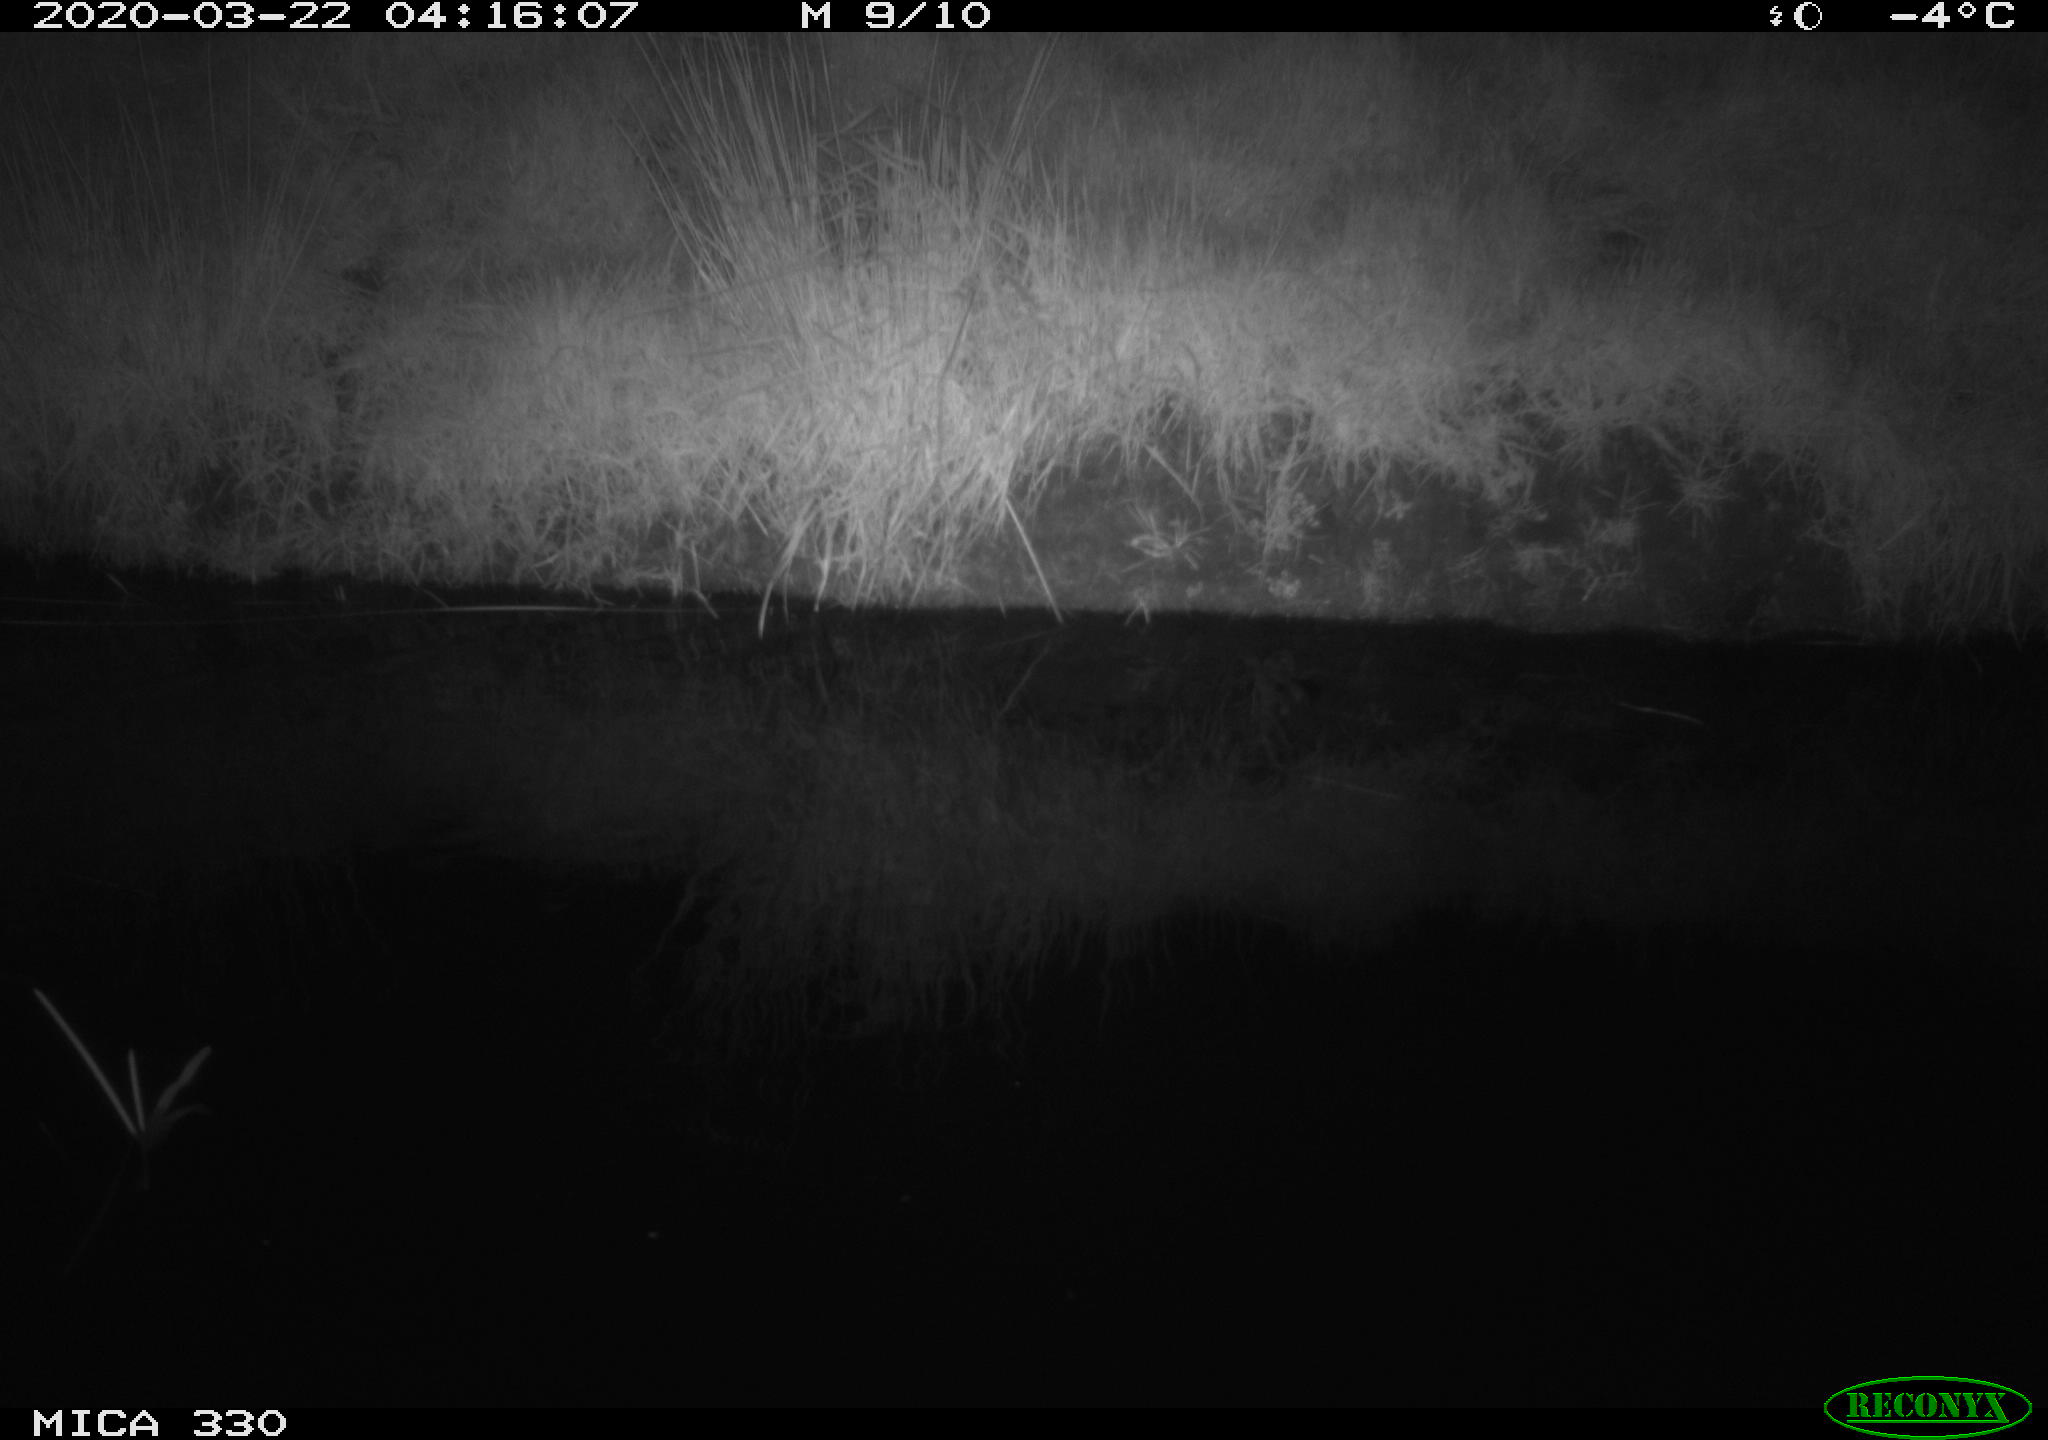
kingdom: Animalia
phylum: Chordata
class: Aves
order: Anseriformes
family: Anatidae
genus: Anas
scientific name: Anas platyrhynchos
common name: Mallard
